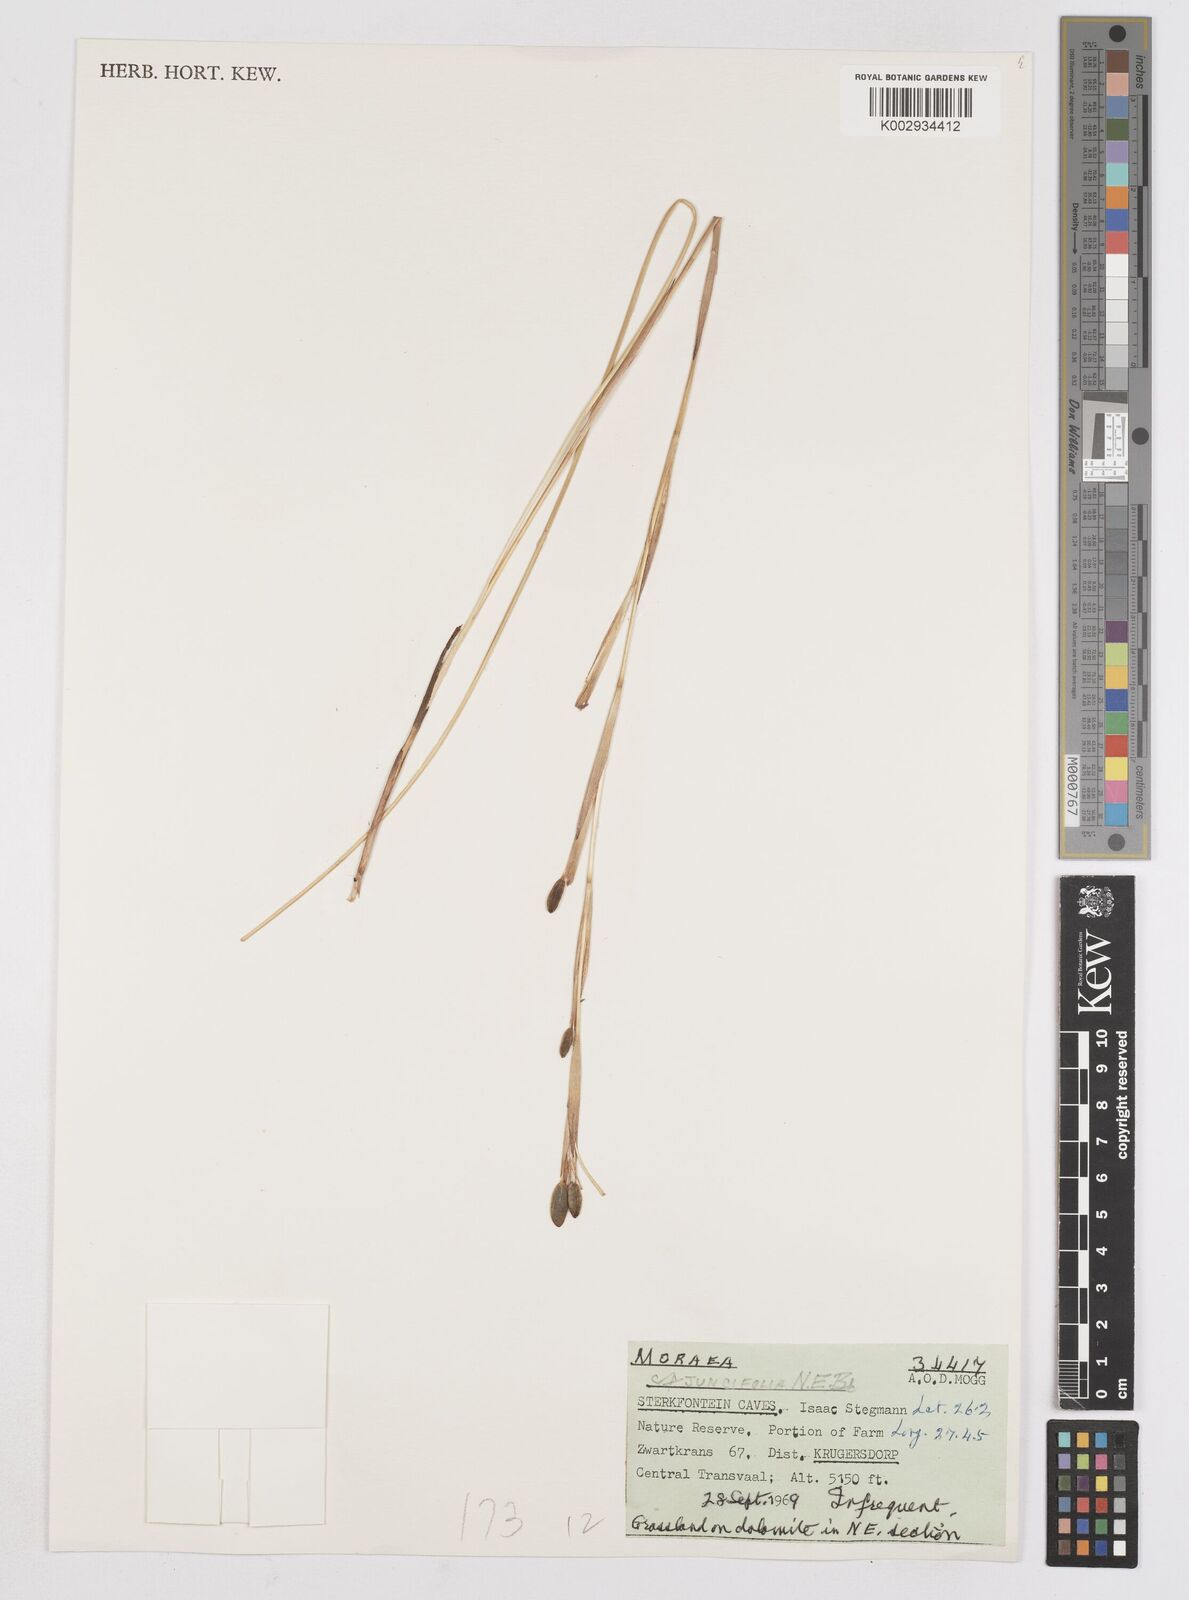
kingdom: Plantae
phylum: Tracheophyta
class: Liliopsida
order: Asparagales
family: Iridaceae
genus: Moraea
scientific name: Moraea elliotii
